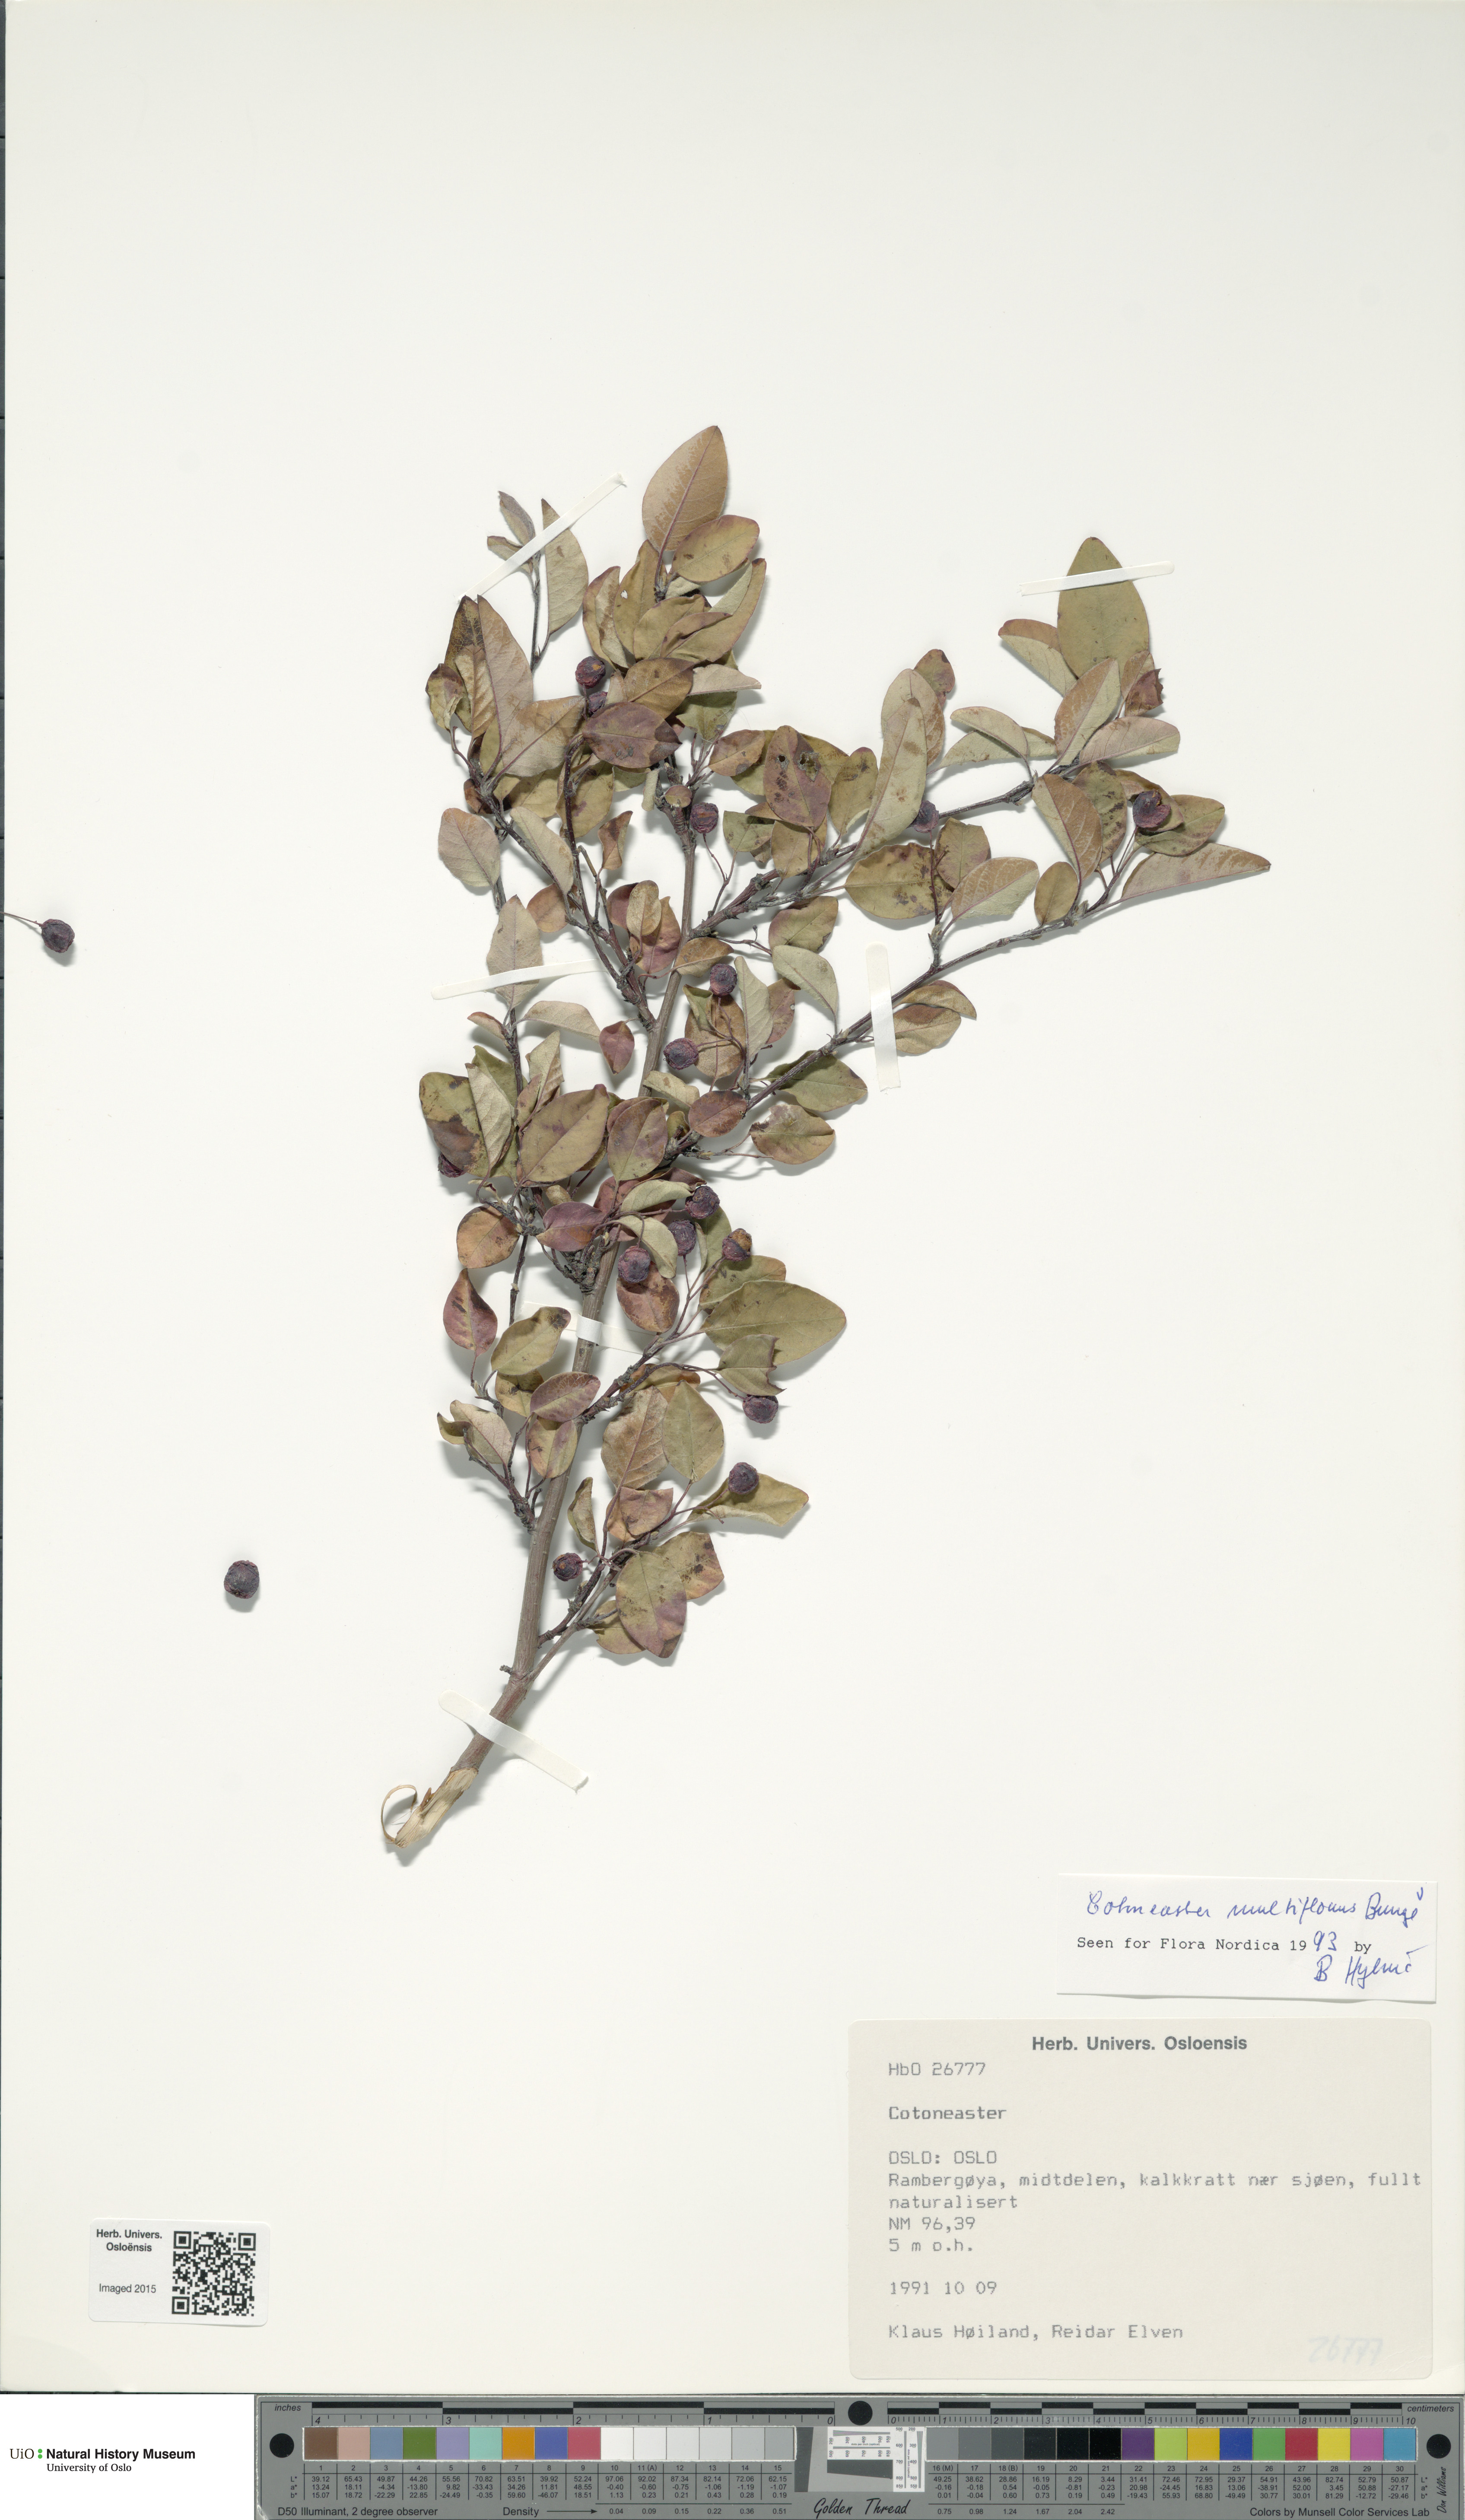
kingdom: Plantae
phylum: Tracheophyta
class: Magnoliopsida
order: Rosales
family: Rosaceae
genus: Cotoneaster
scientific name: Cotoneaster multiflorus
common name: Cotoneaster
